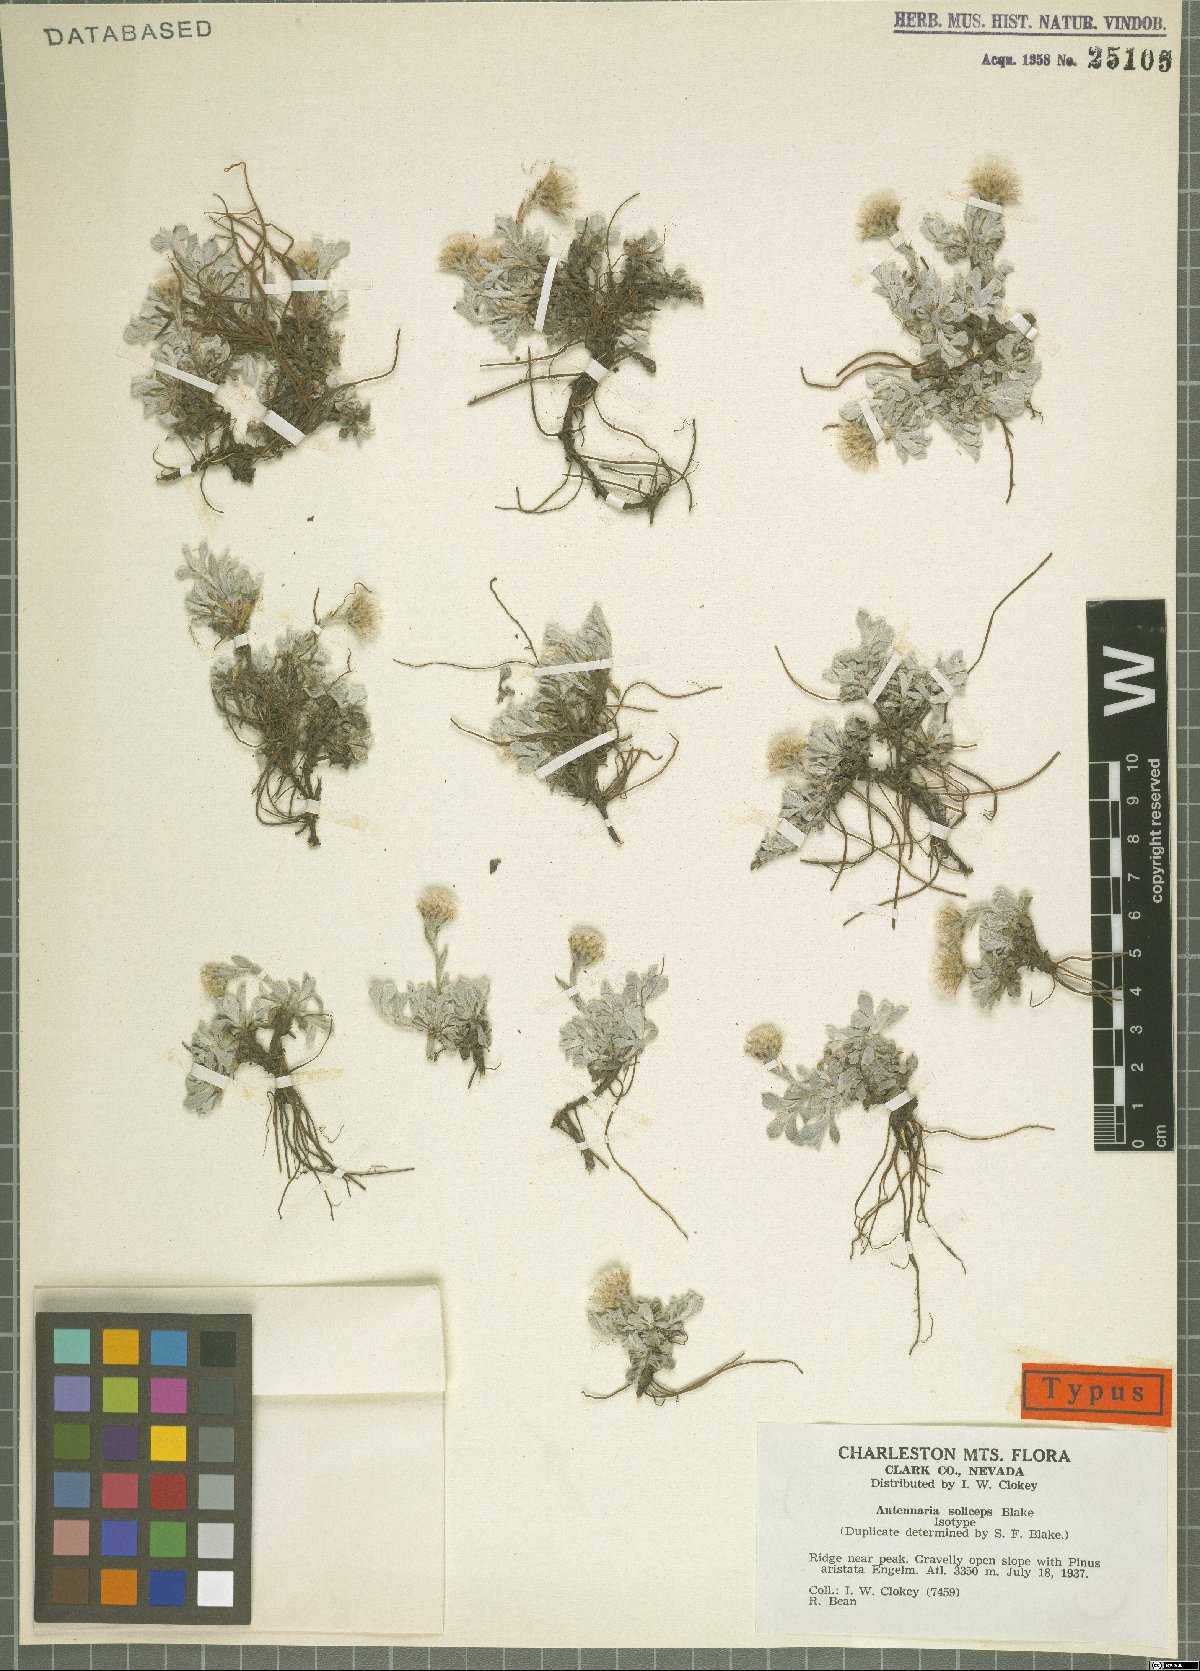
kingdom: Plantae
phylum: Tracheophyta
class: Magnoliopsida
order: Asterales
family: Asteraceae
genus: Antennaria
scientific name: Antennaria soliceps
